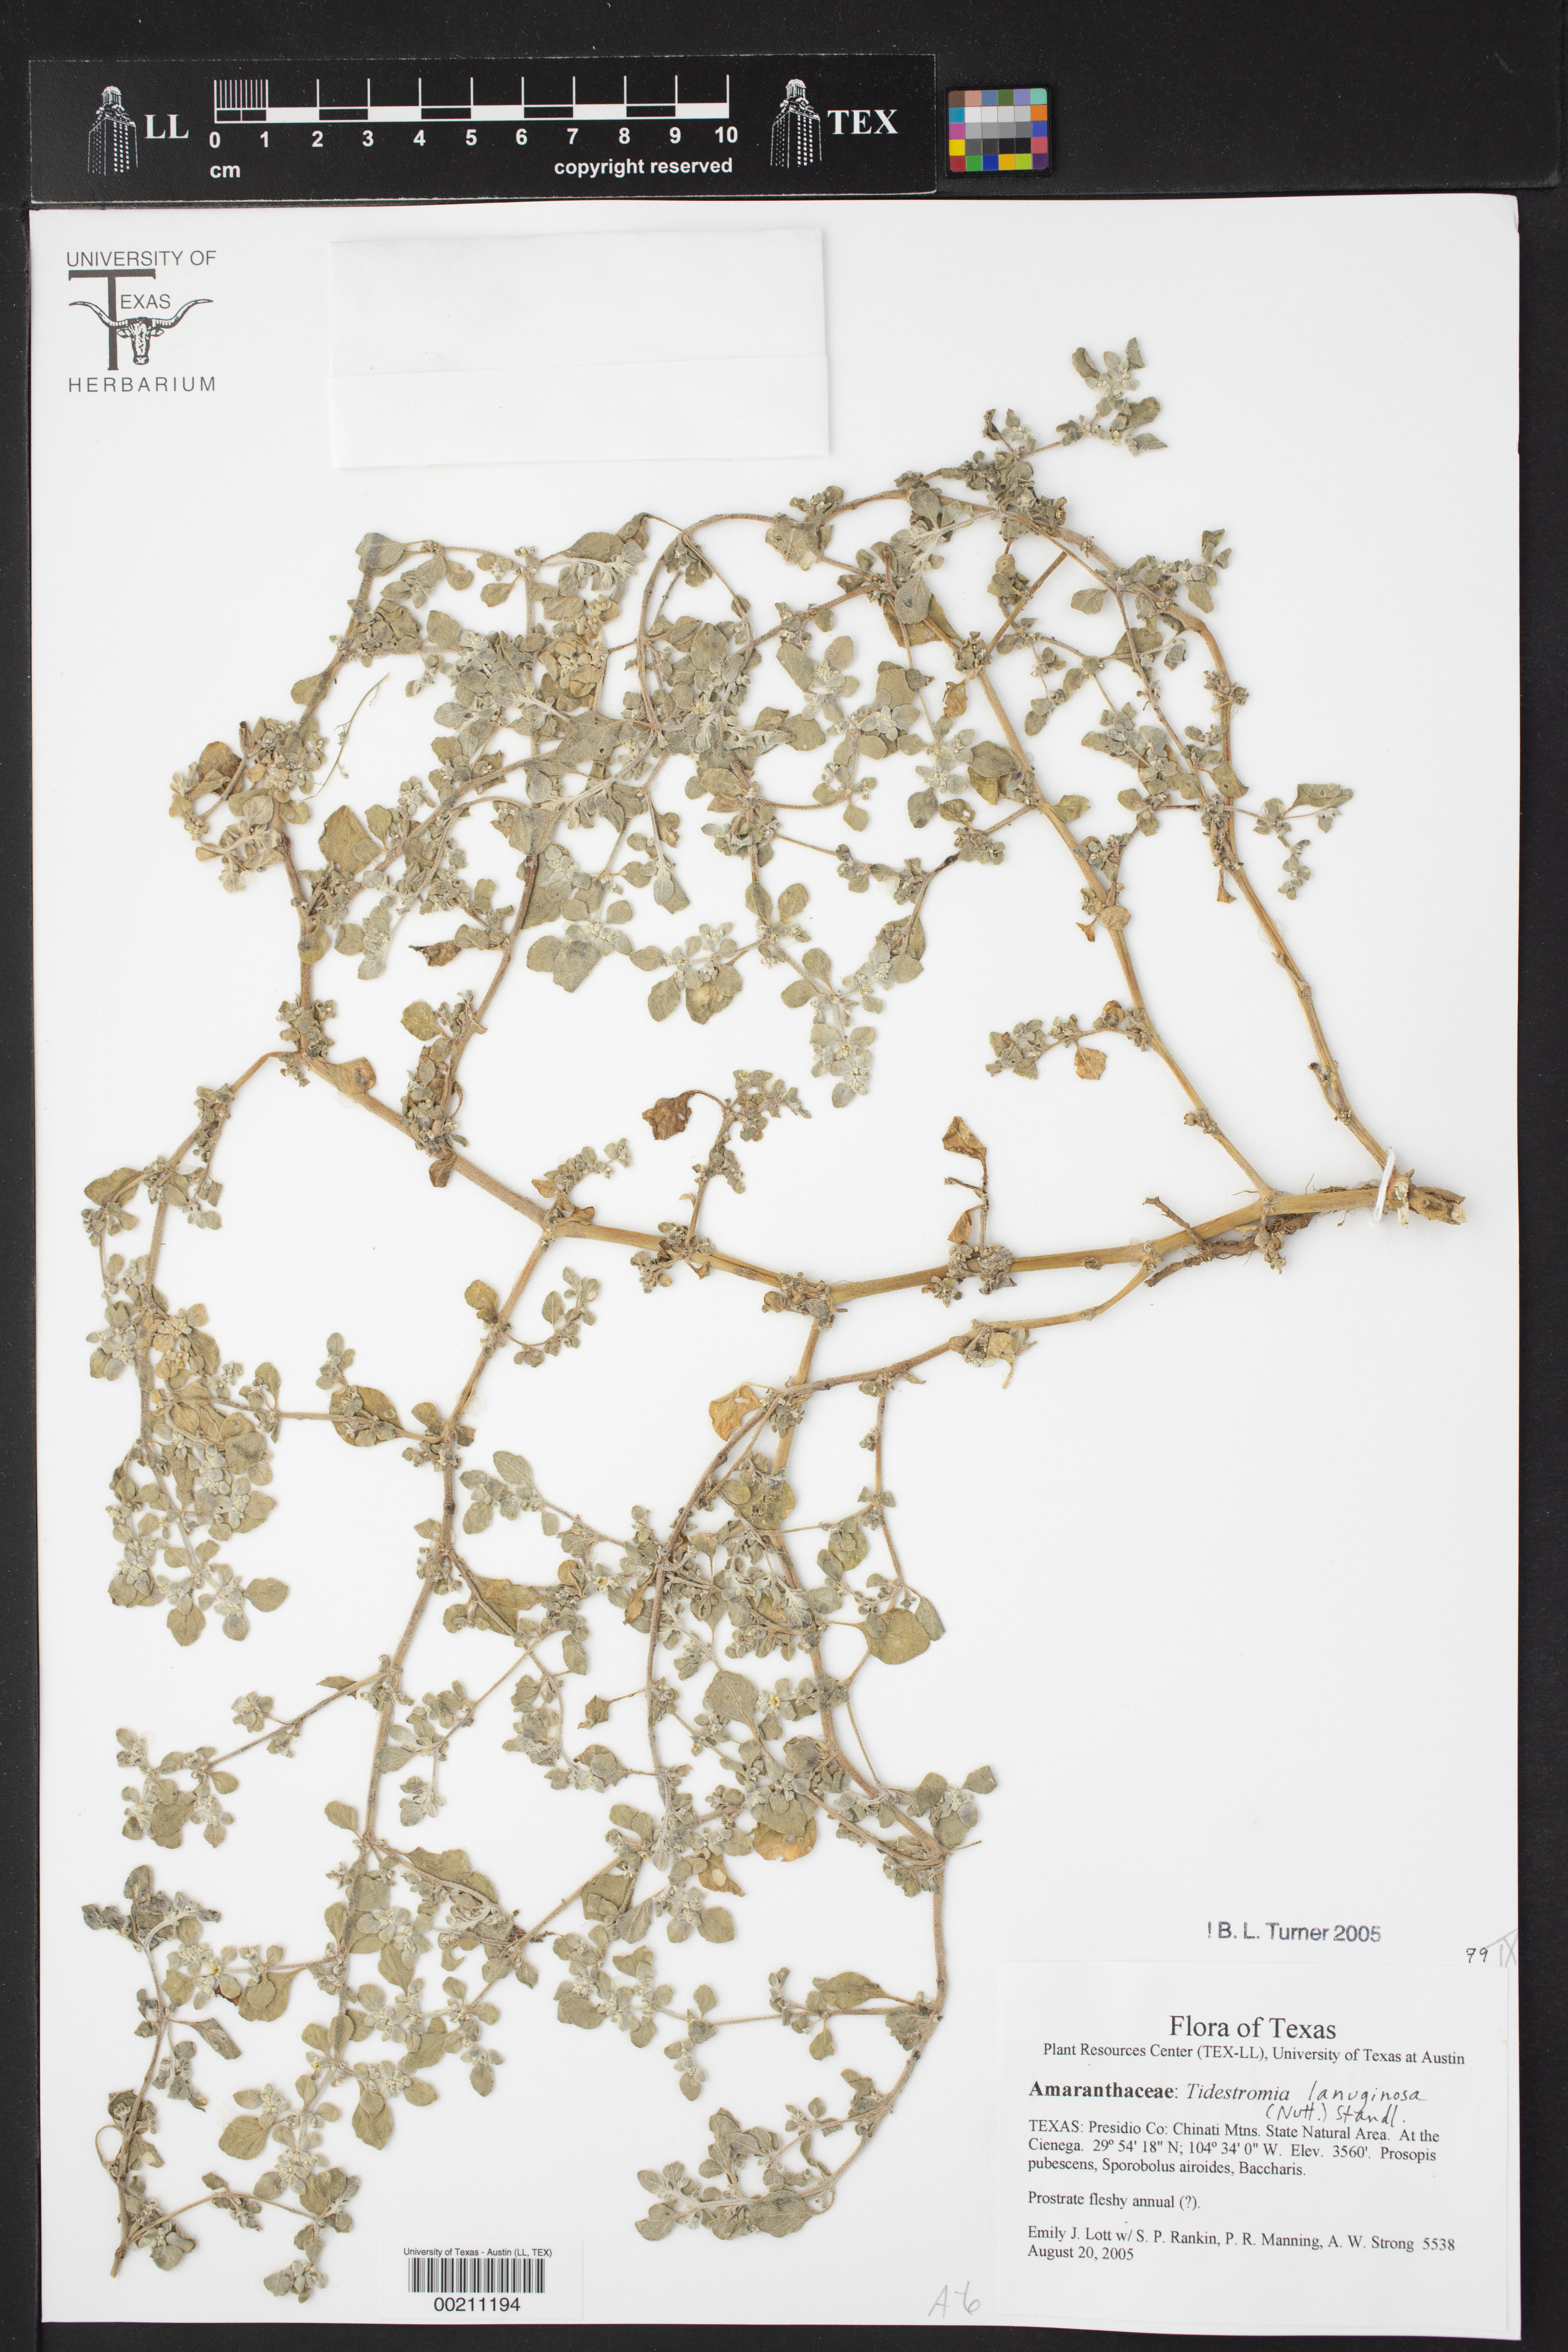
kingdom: Plantae
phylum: Tracheophyta
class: Magnoliopsida
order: Caryophyllales
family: Amaranthaceae
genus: Tidestromia
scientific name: Tidestromia lanuginosa
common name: Woolly tidestromia
